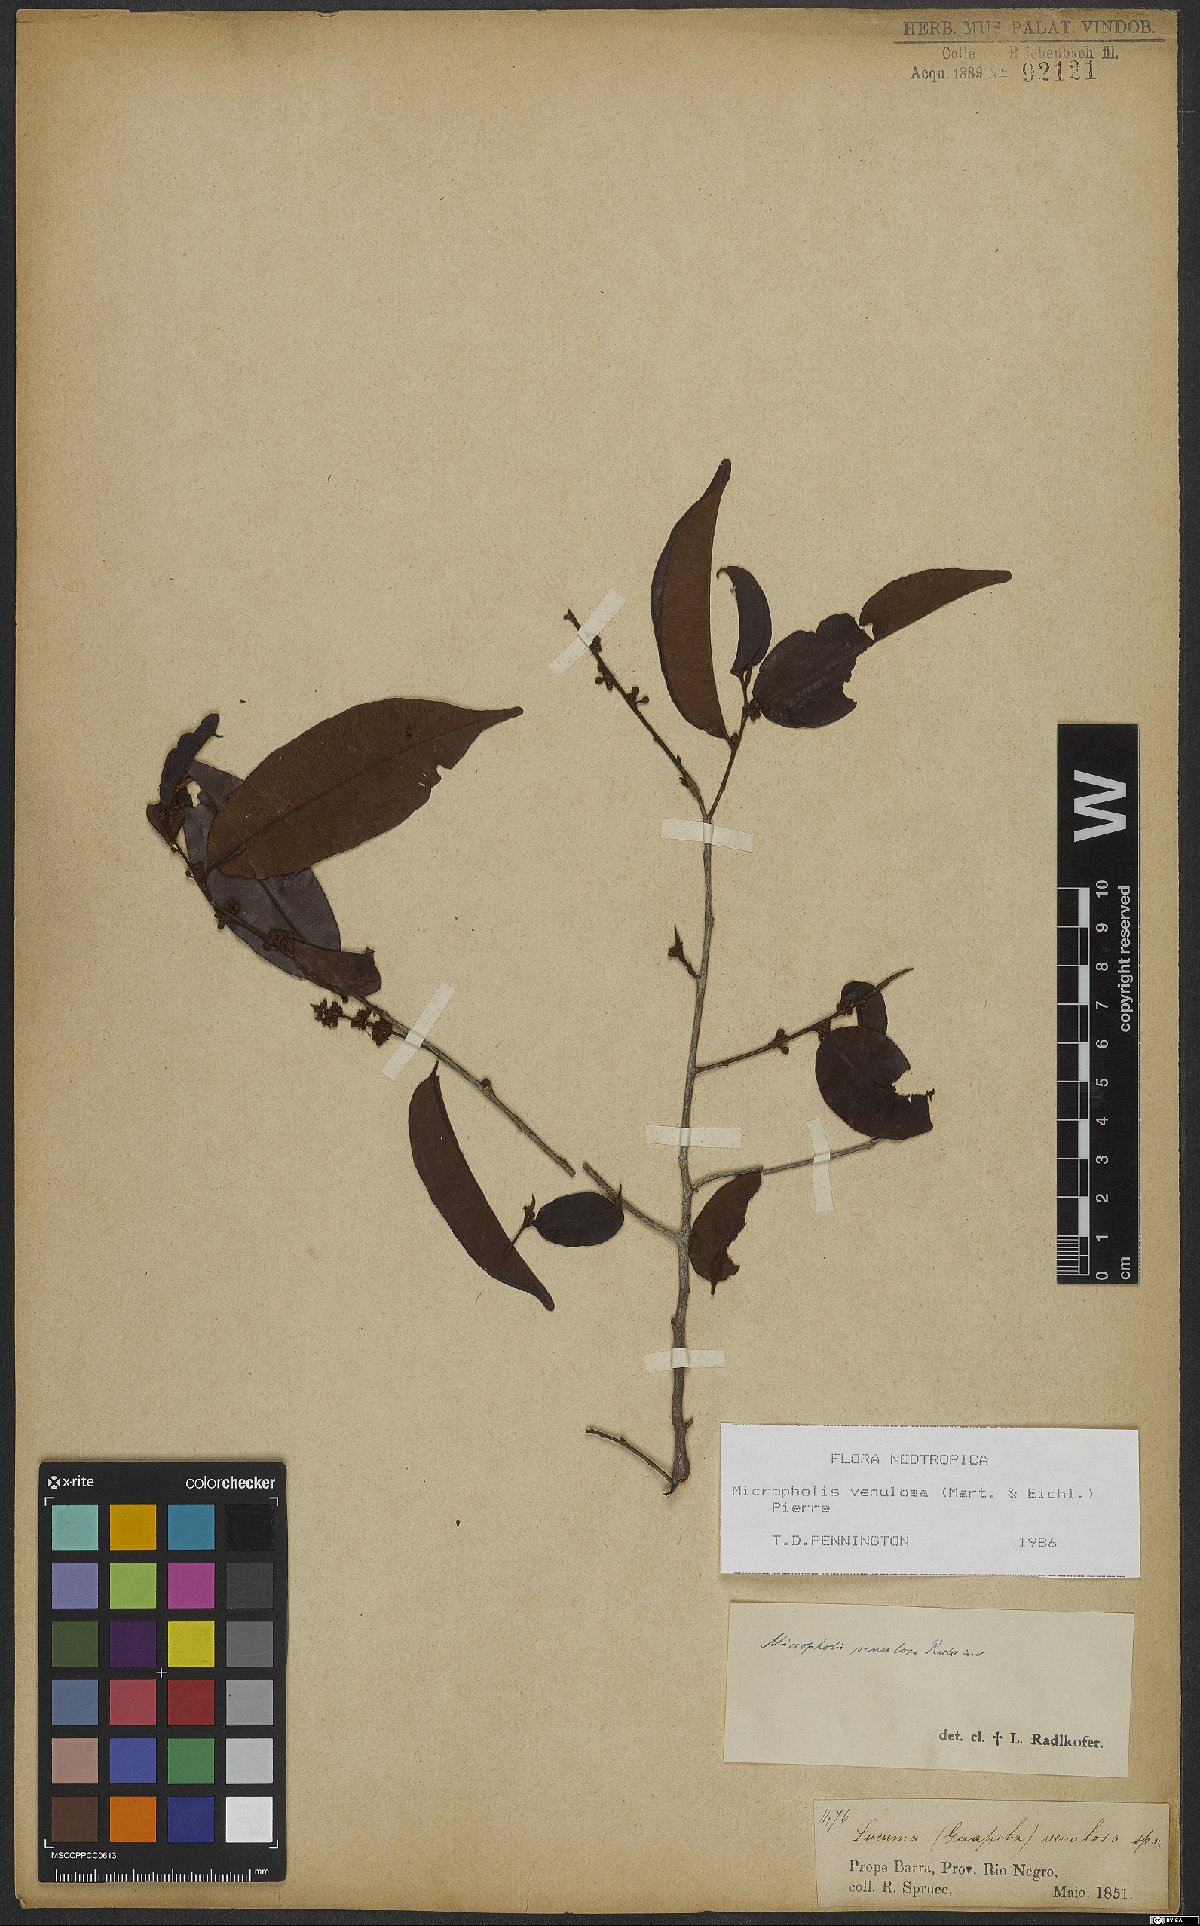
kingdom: Plantae
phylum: Tracheophyta
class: Magnoliopsida
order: Ericales
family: Sapotaceae
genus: Micropholis
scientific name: Micropholis venulosa
